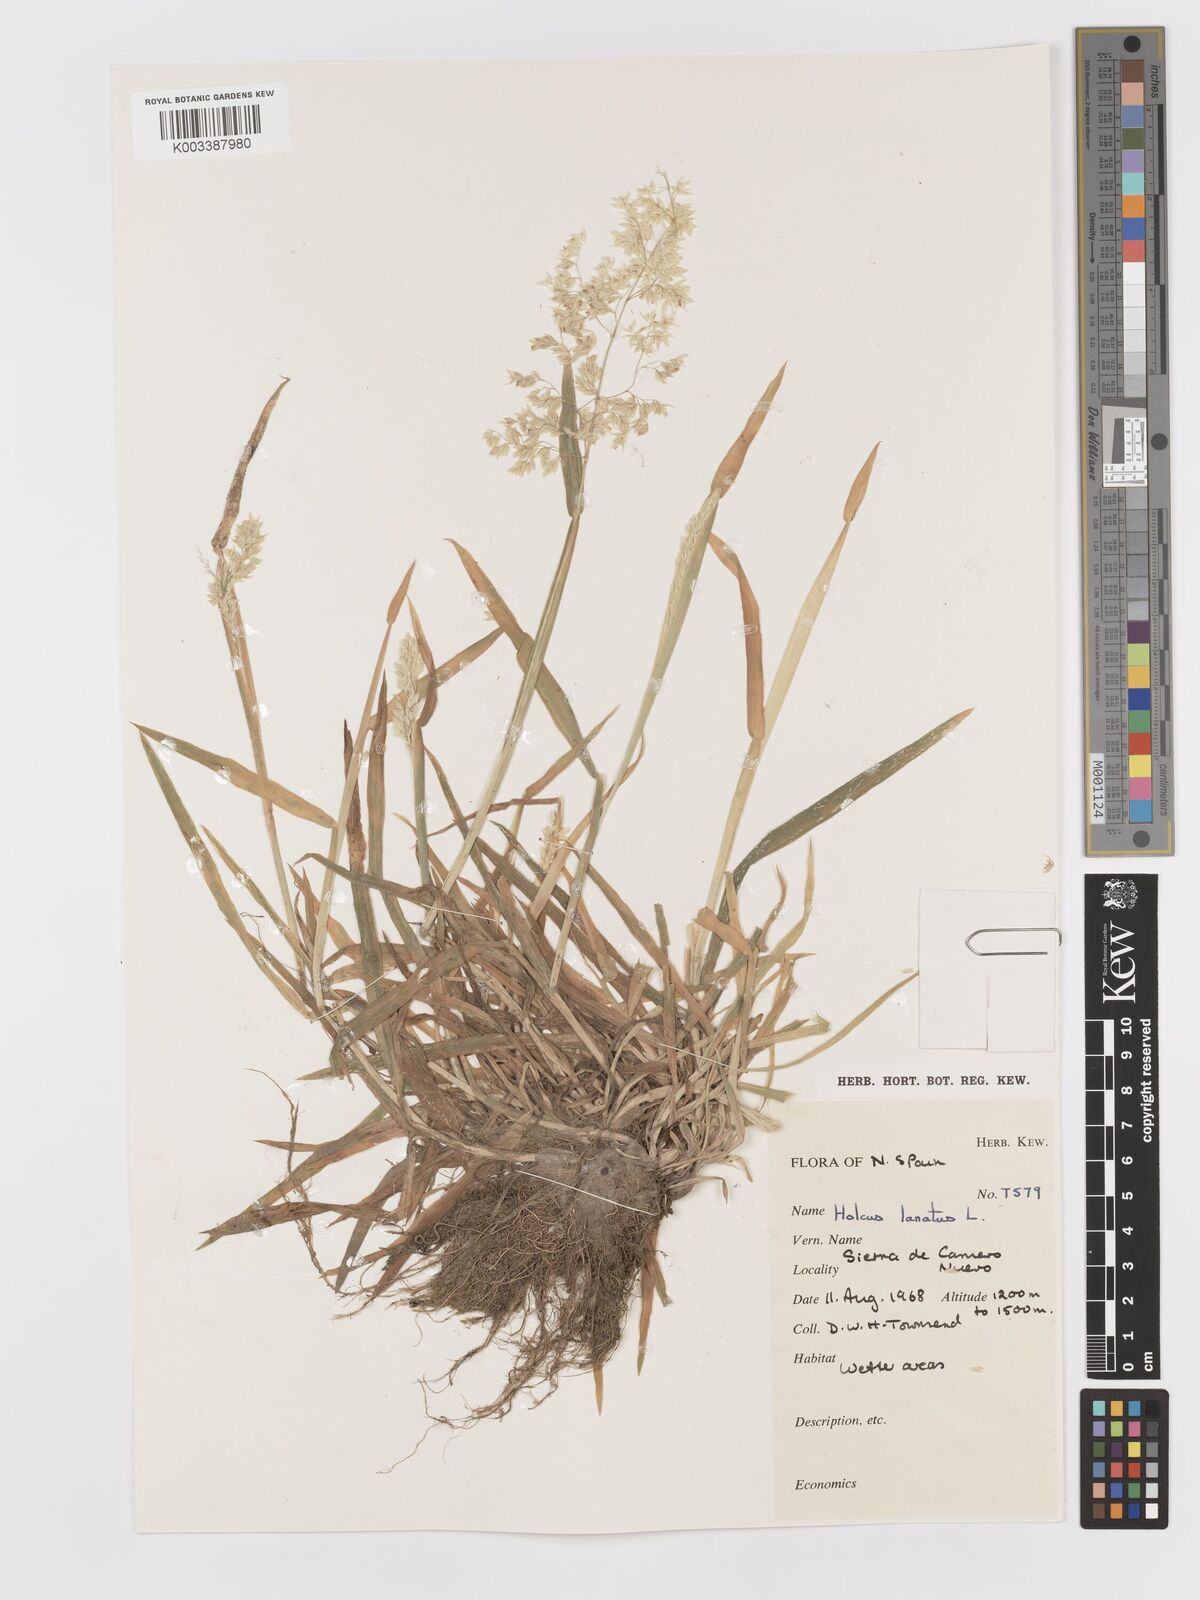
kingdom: Plantae
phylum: Tracheophyta
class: Liliopsida
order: Poales
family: Poaceae
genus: Holcus
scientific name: Holcus lanatus
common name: Yorkshire-fog
